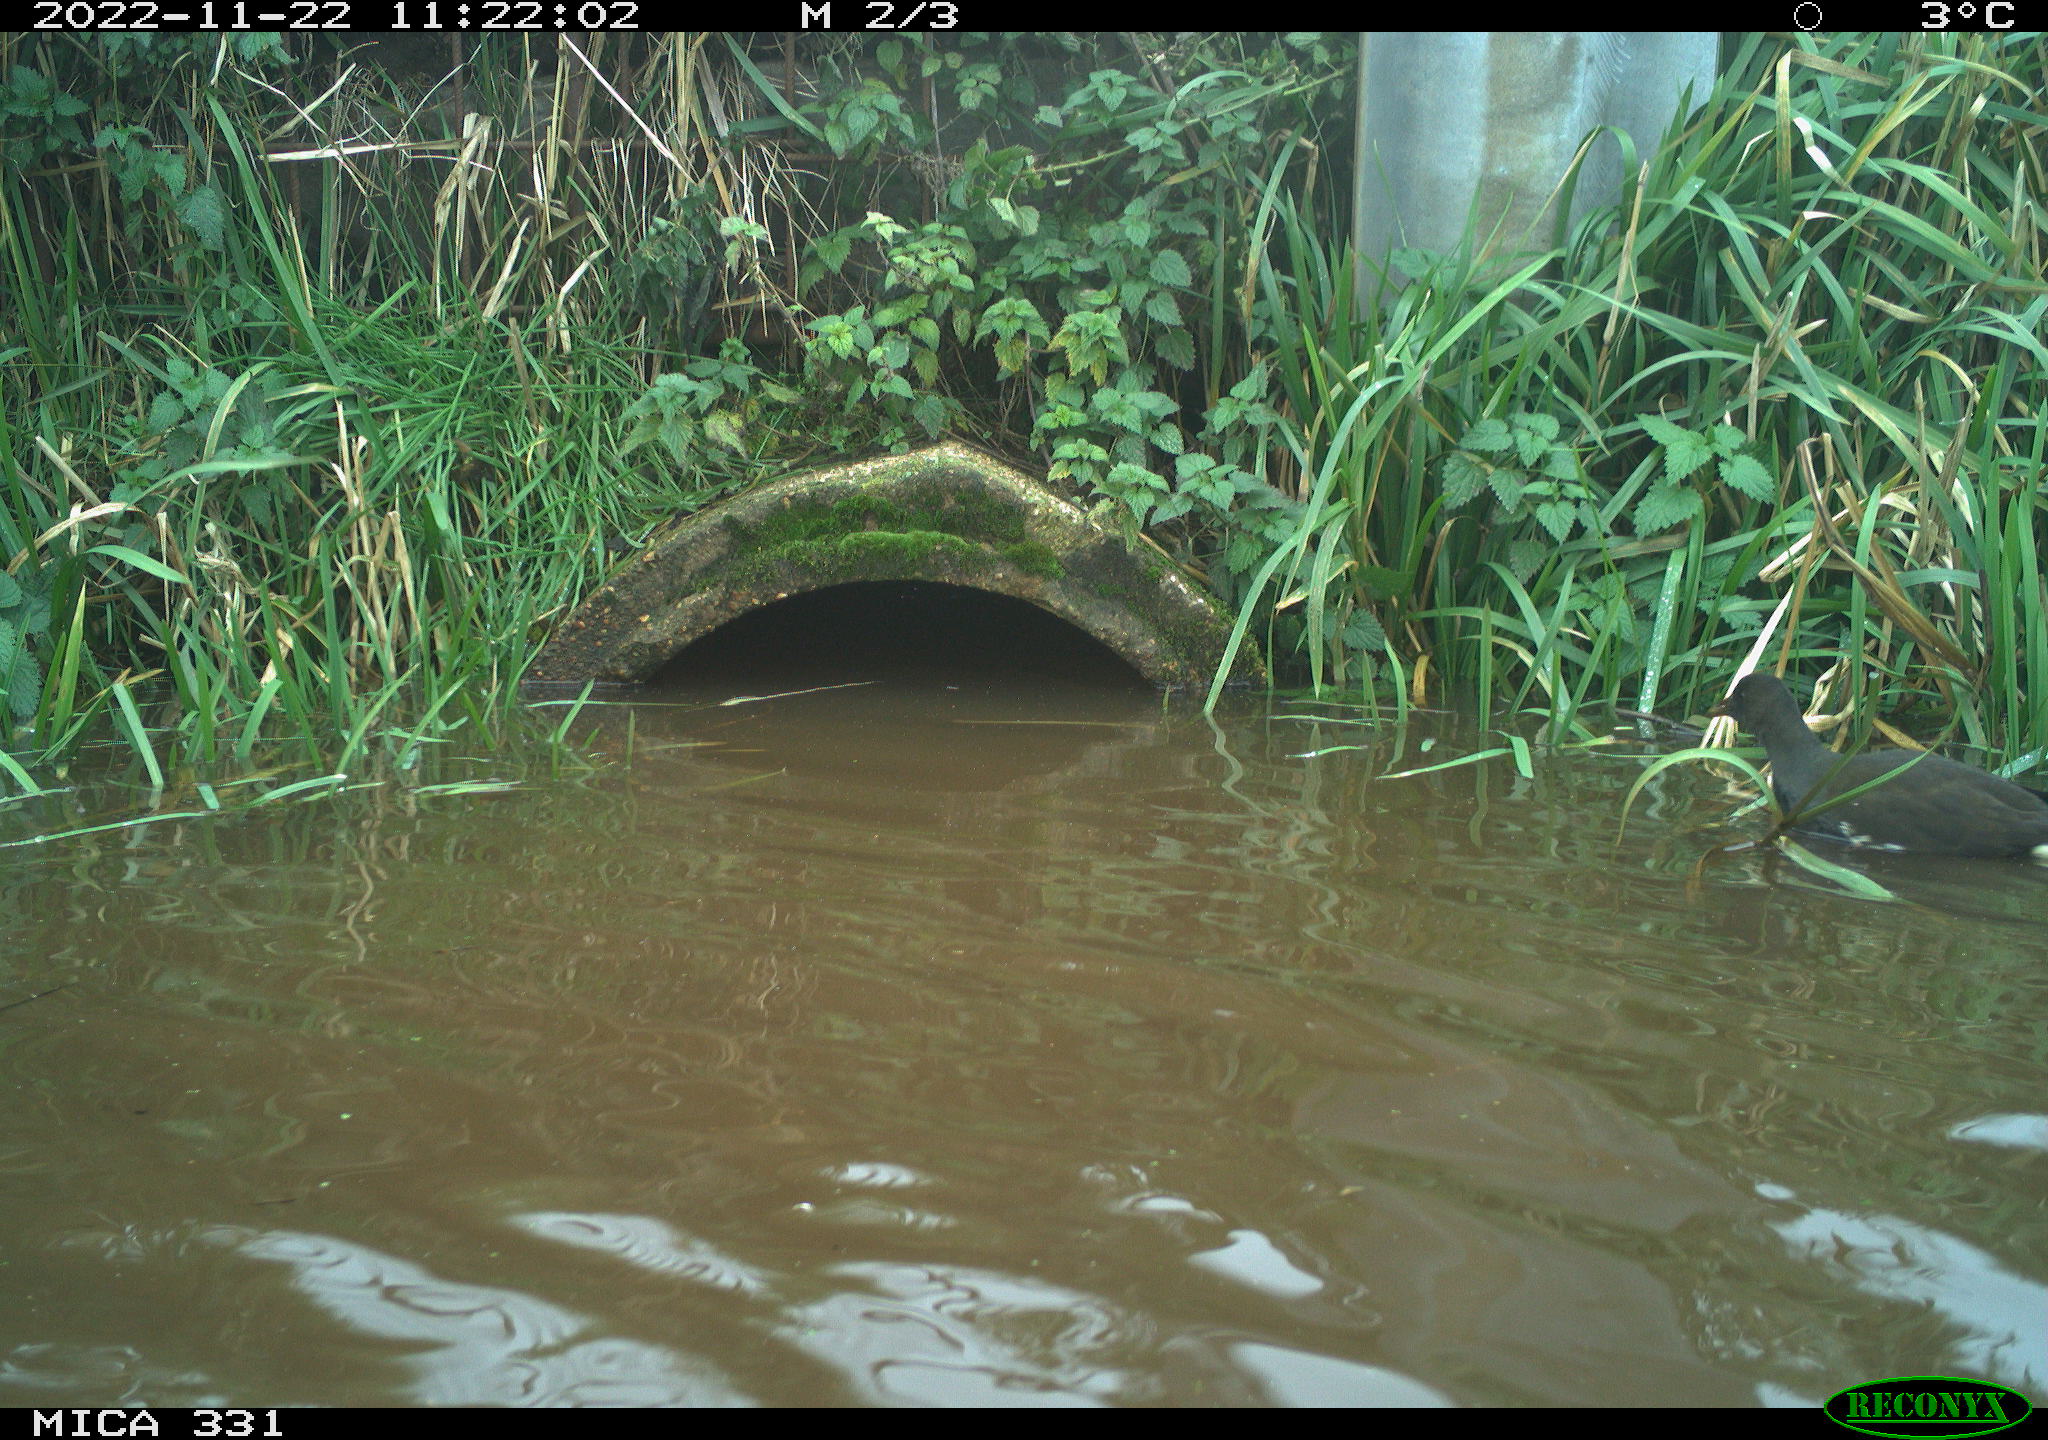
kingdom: Animalia
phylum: Chordata
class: Aves
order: Gruiformes
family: Rallidae
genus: Gallinula
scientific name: Gallinula chloropus
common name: Common moorhen
